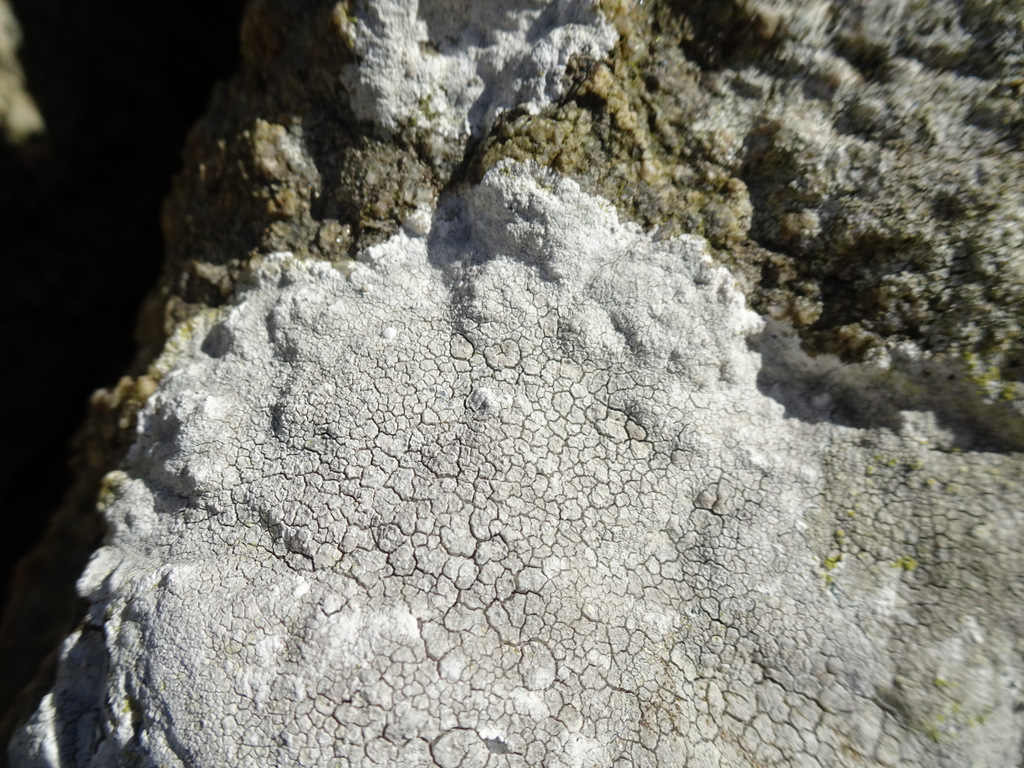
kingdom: Fungi
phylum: Ascomycota
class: Lecanoromycetes
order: Lecanorales
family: Lecanoraceae
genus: Glaucomaria
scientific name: Glaucomaria rupicola
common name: stengærde-kantskivelav
